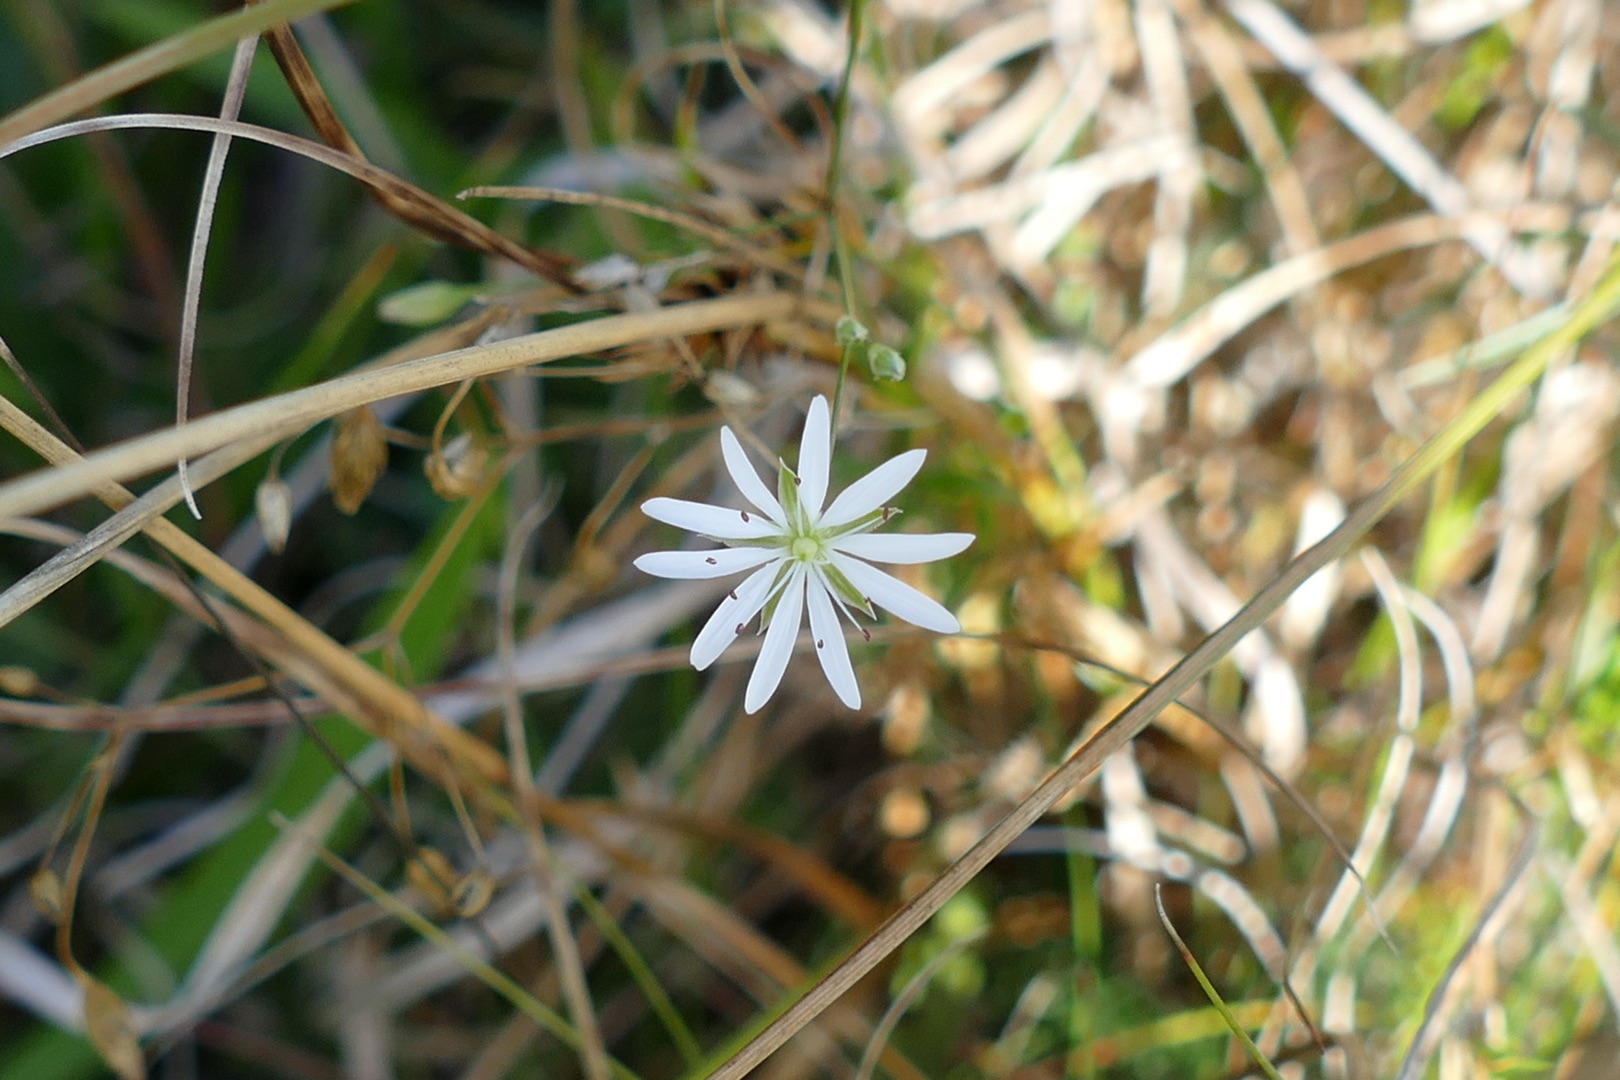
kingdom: Plantae
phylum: Tracheophyta
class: Magnoliopsida
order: Caryophyllales
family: Caryophyllaceae
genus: Stellaria
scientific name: Stellaria graminea
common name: Græsbladet fladstjerne
